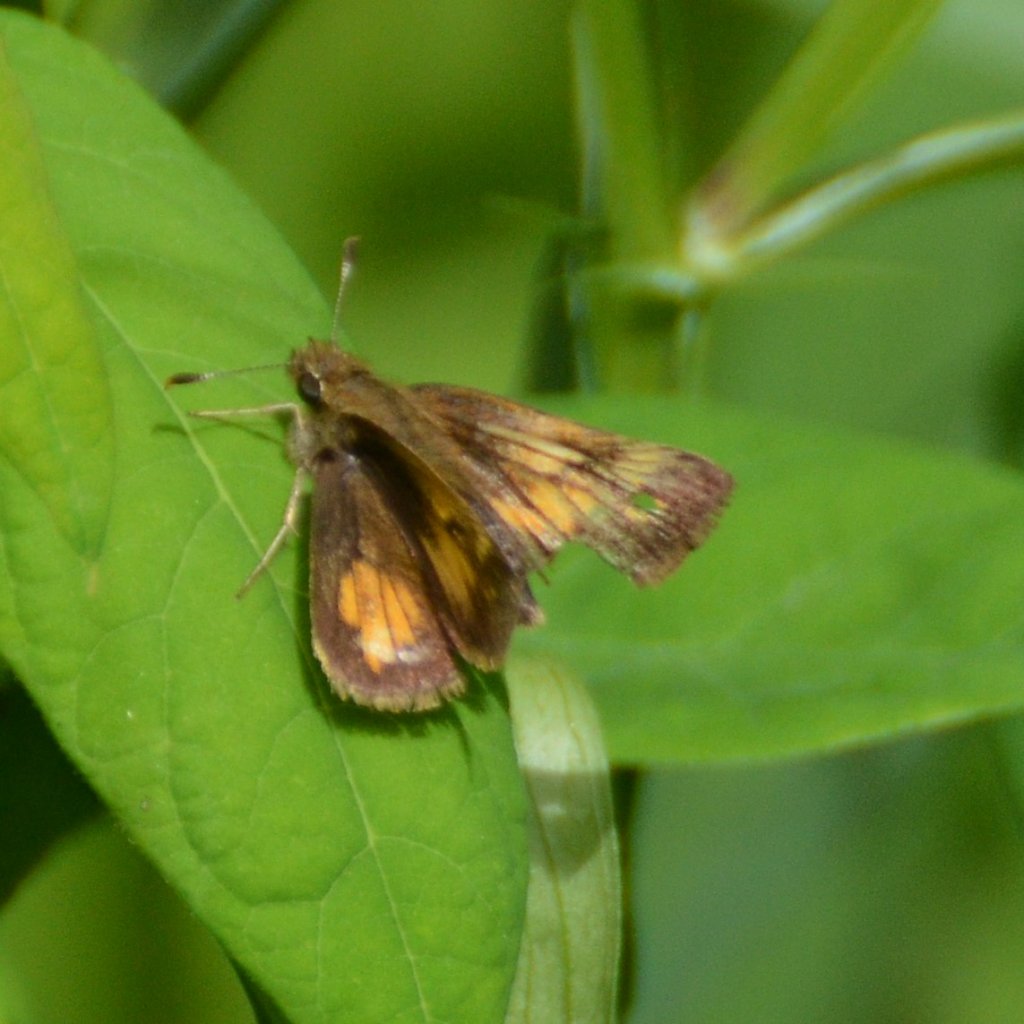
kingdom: Animalia
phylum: Arthropoda
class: Insecta
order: Lepidoptera
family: Hesperiidae
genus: Hesperia
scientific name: Hesperia sassacus
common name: Sassacus Skipper
